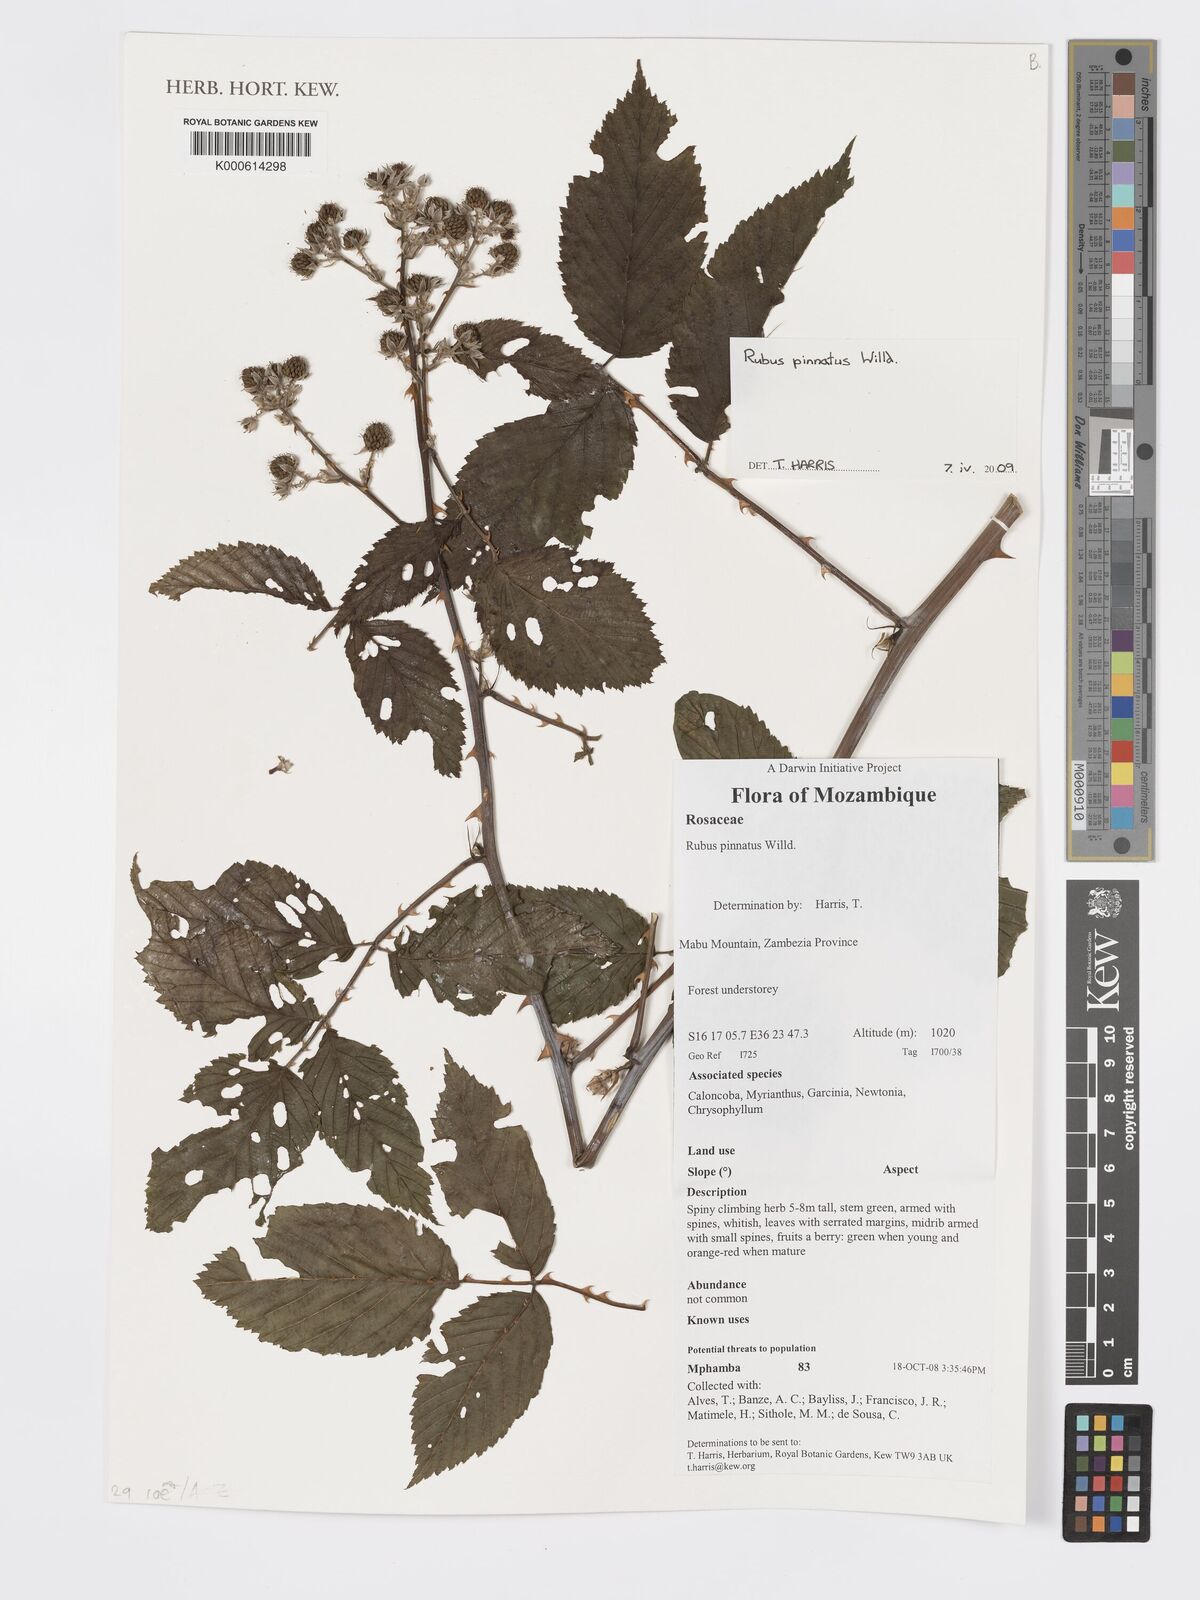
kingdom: Plantae
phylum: Tracheophyta
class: Magnoliopsida
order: Rosales
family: Rosaceae
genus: Rubus
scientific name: Rubus pinnatus
